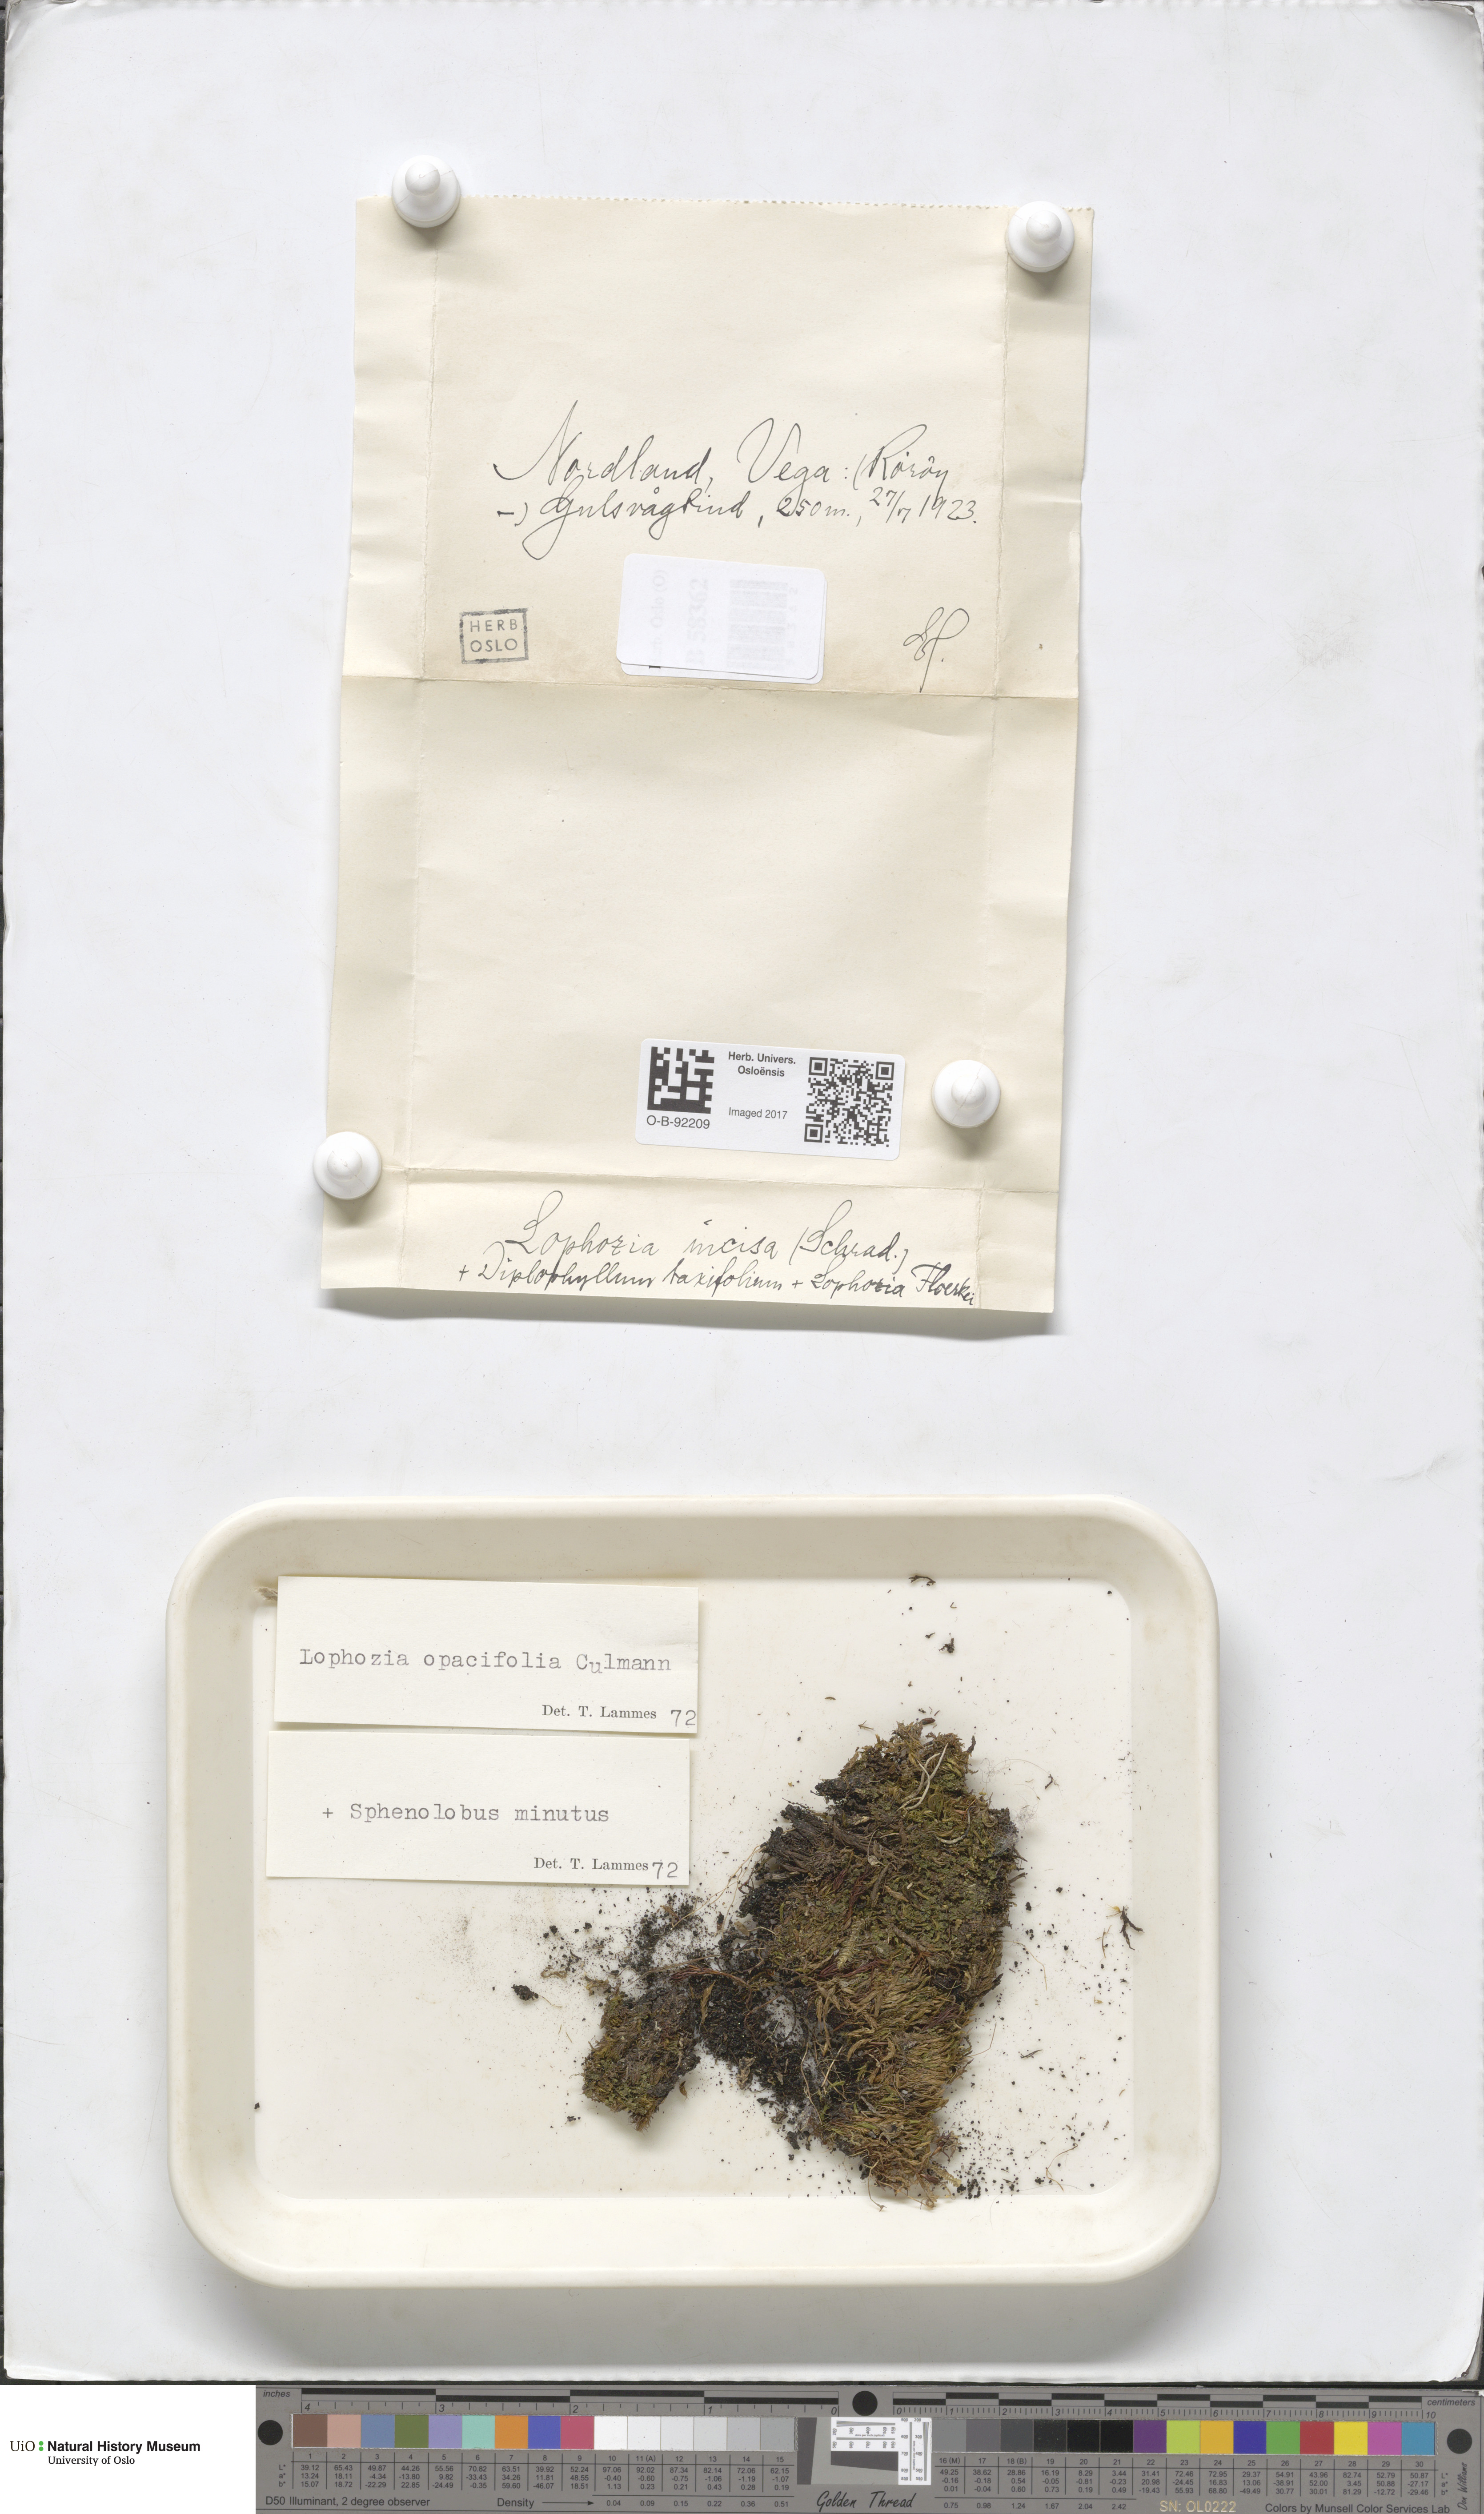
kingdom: Plantae
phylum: Marchantiophyta
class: Jungermanniopsida
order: Jungermanniales
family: Scapaniaceae
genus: Schistochilopsis
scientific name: Schistochilopsis opacifolia
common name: Alpine jagged notchwort
